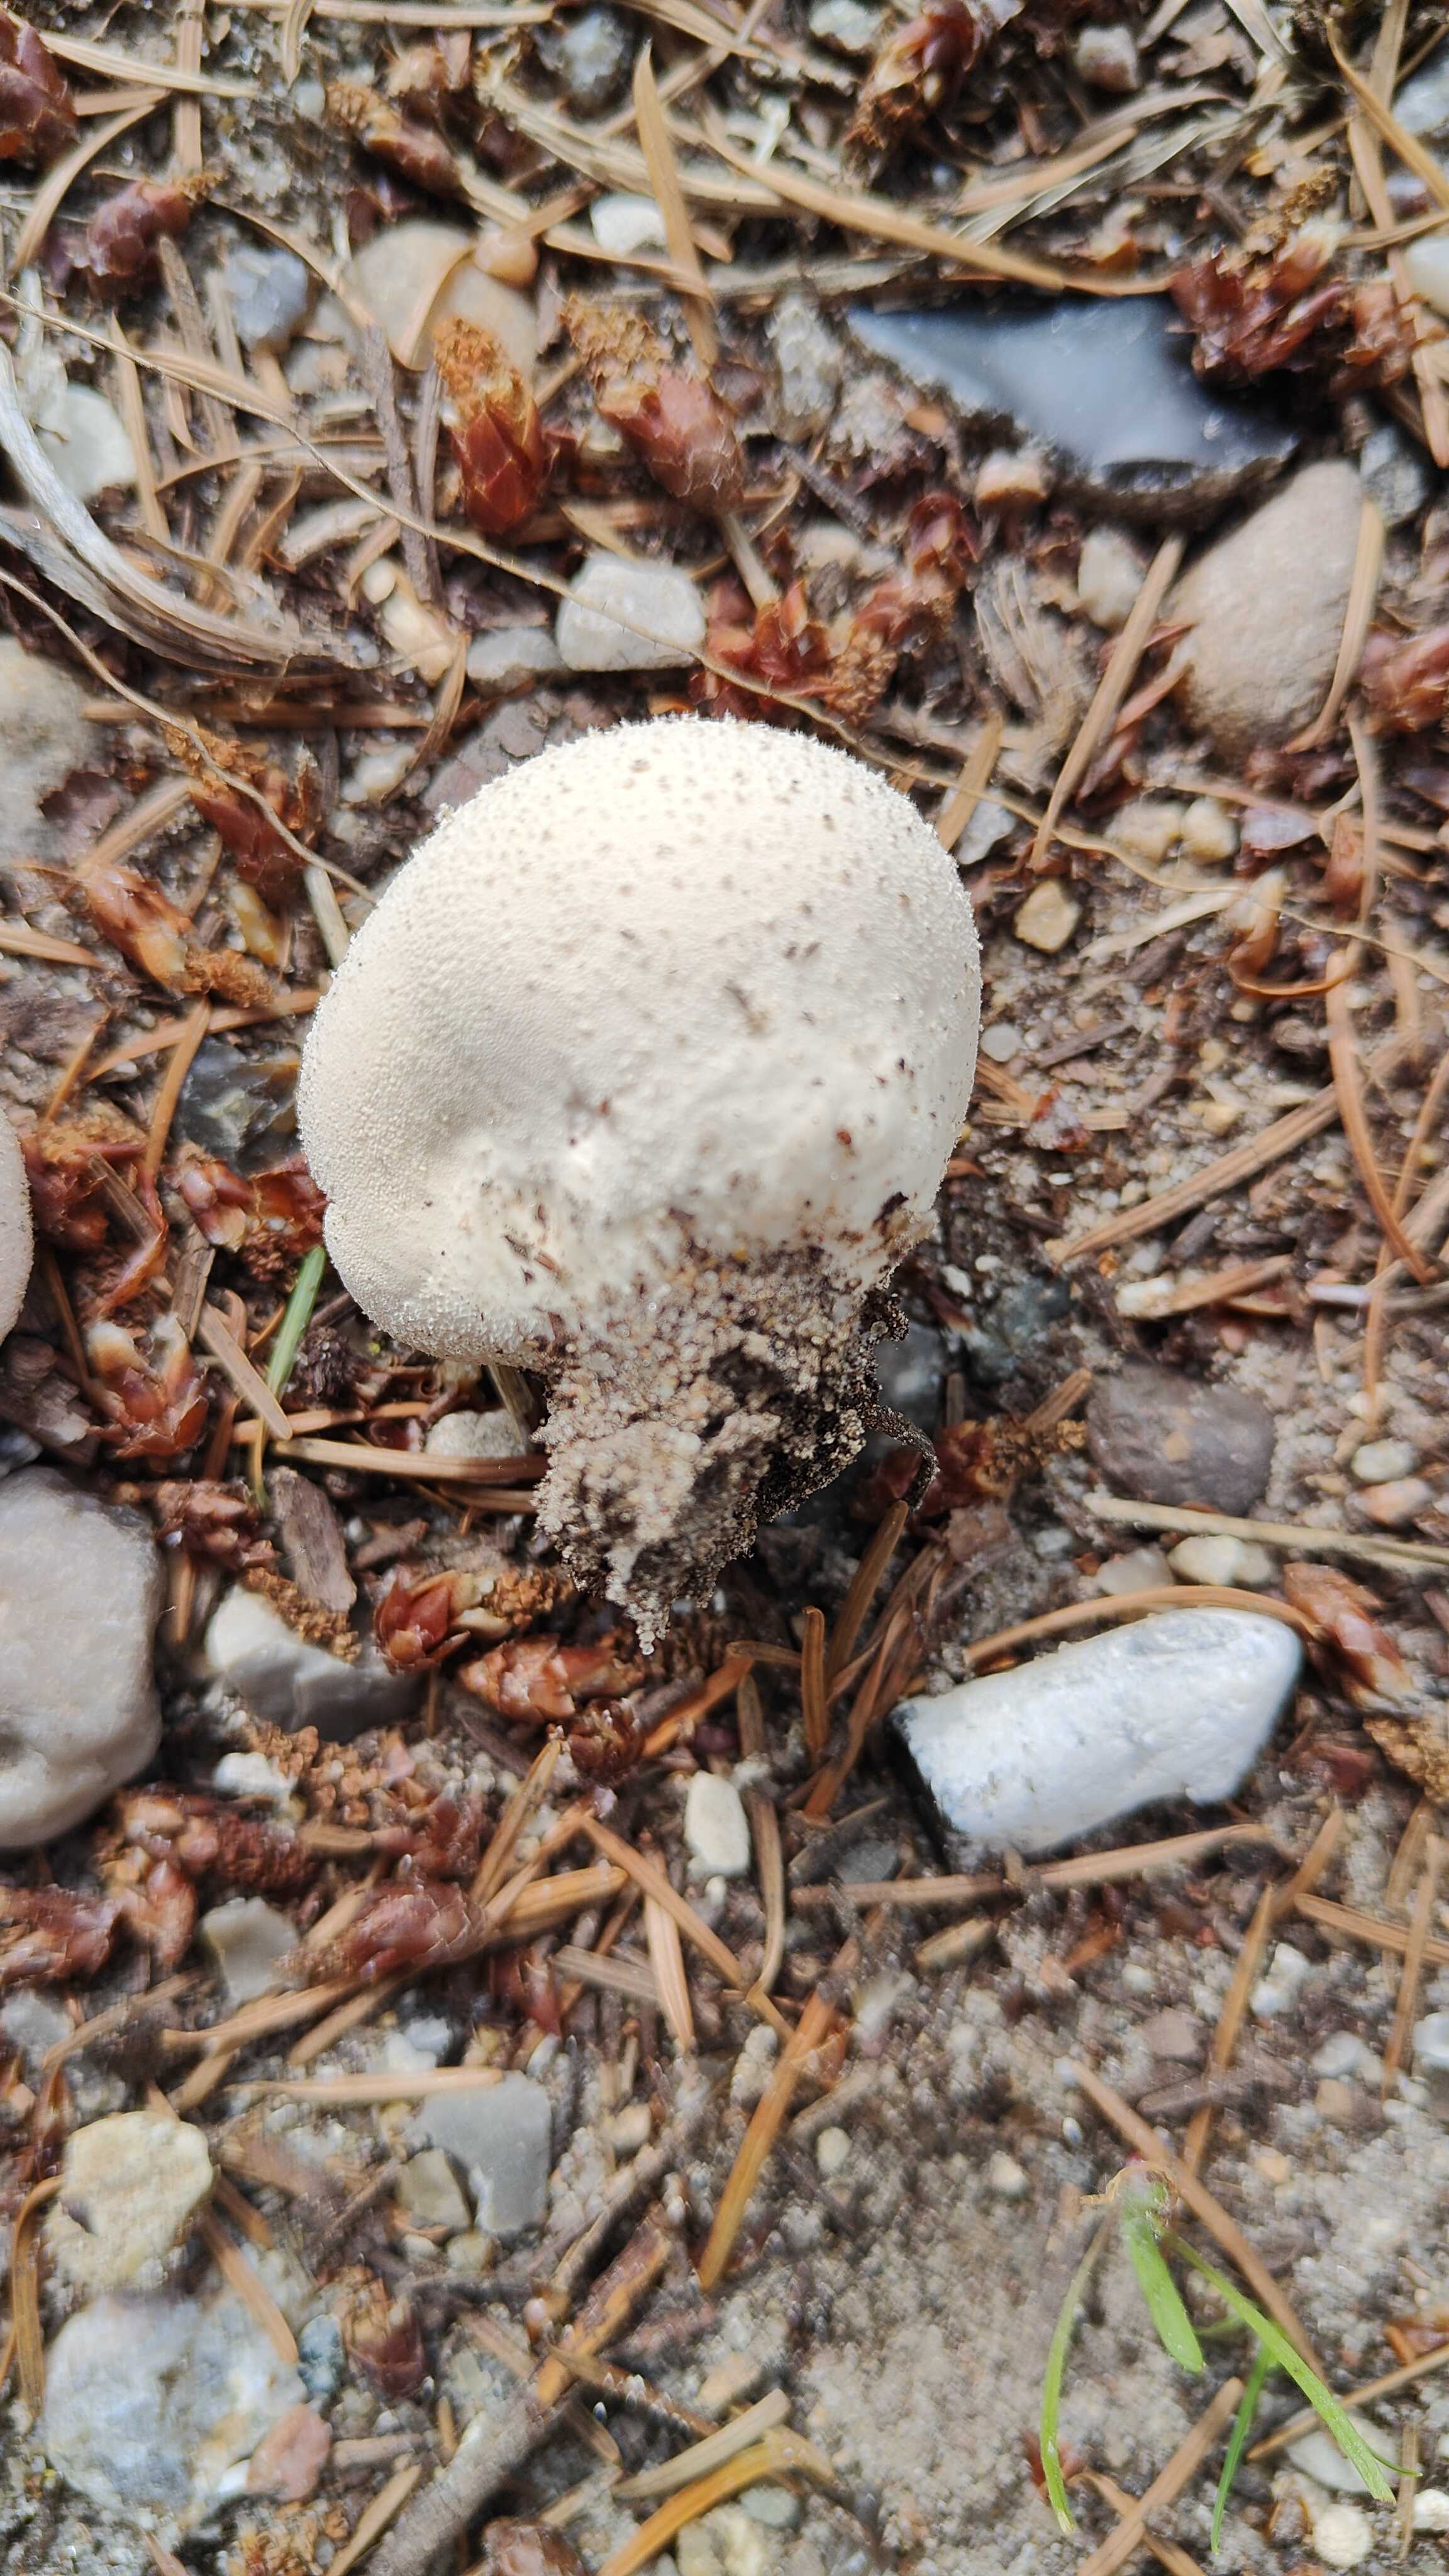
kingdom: Fungi
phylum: Basidiomycota
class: Agaricomycetes
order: Agaricales
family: Lycoperdaceae
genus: Lycoperdon
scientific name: Lycoperdon pratense
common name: flad støvbold
